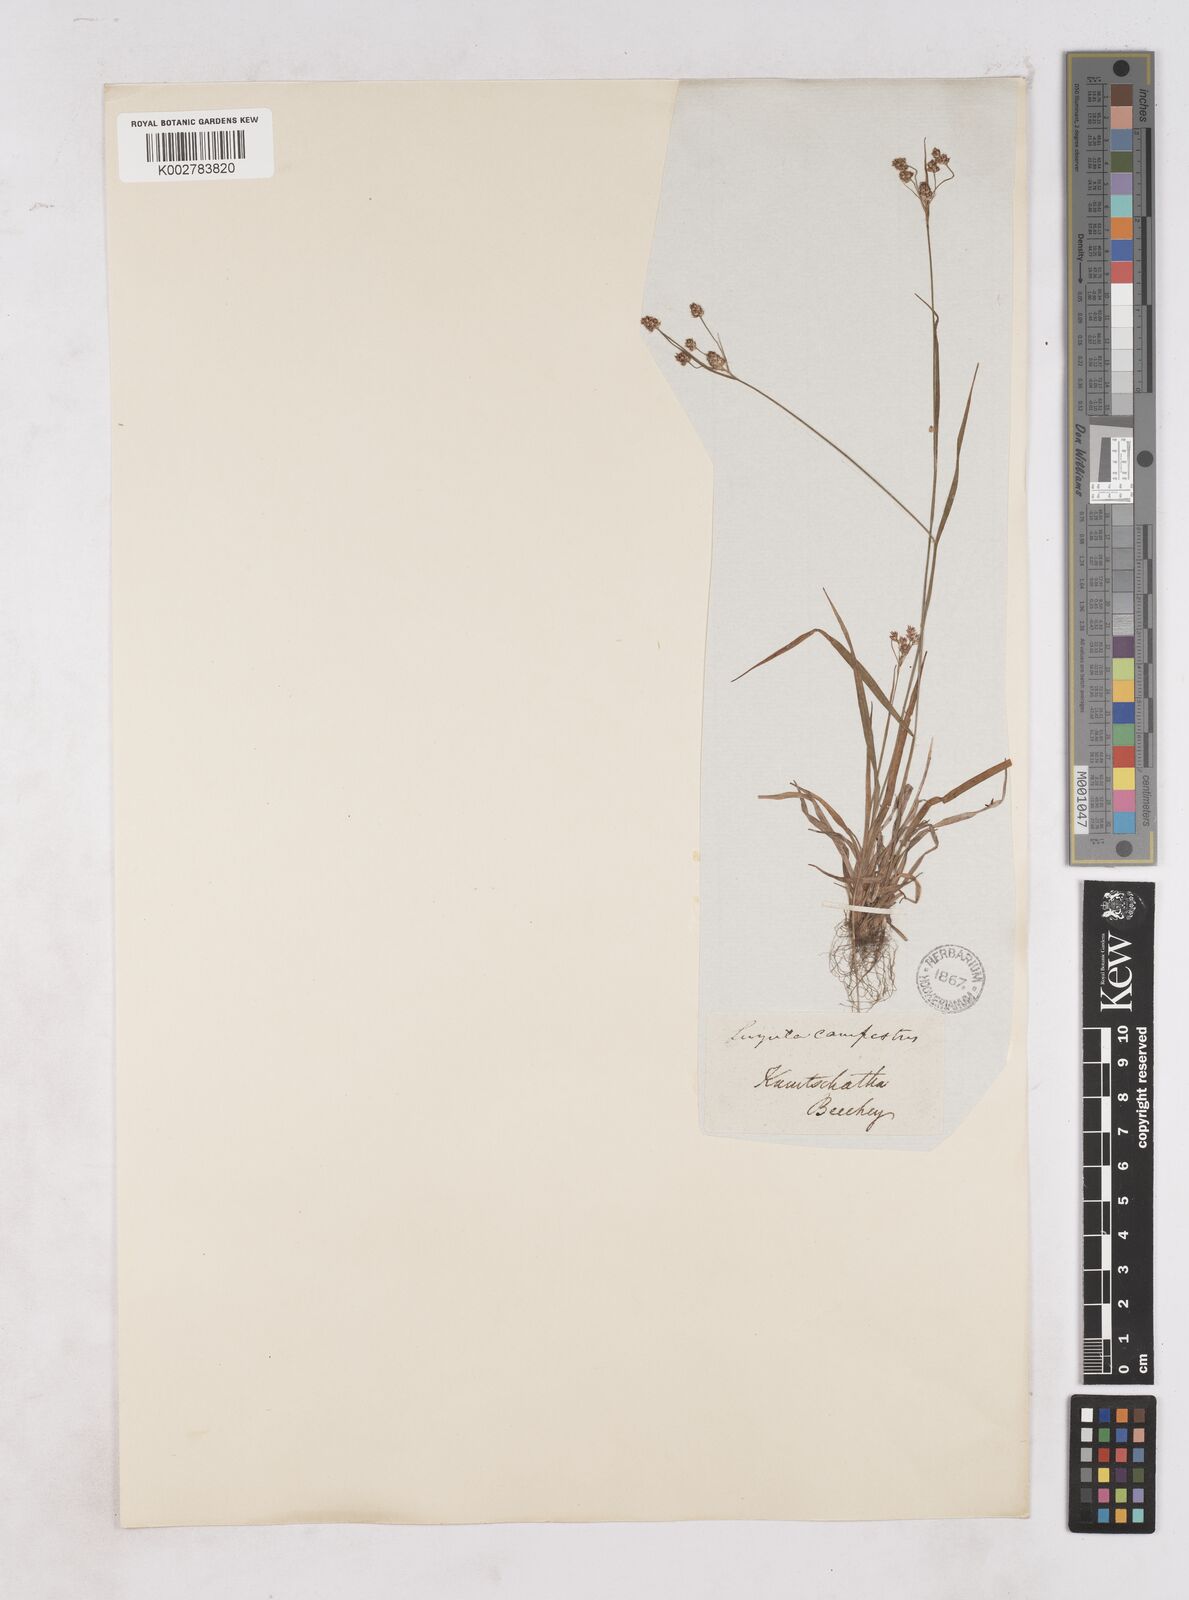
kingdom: Plantae
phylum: Tracheophyta
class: Liliopsida
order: Poales
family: Juncaceae
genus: Luzula
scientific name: Luzula pallescens
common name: Fen wood-rush
